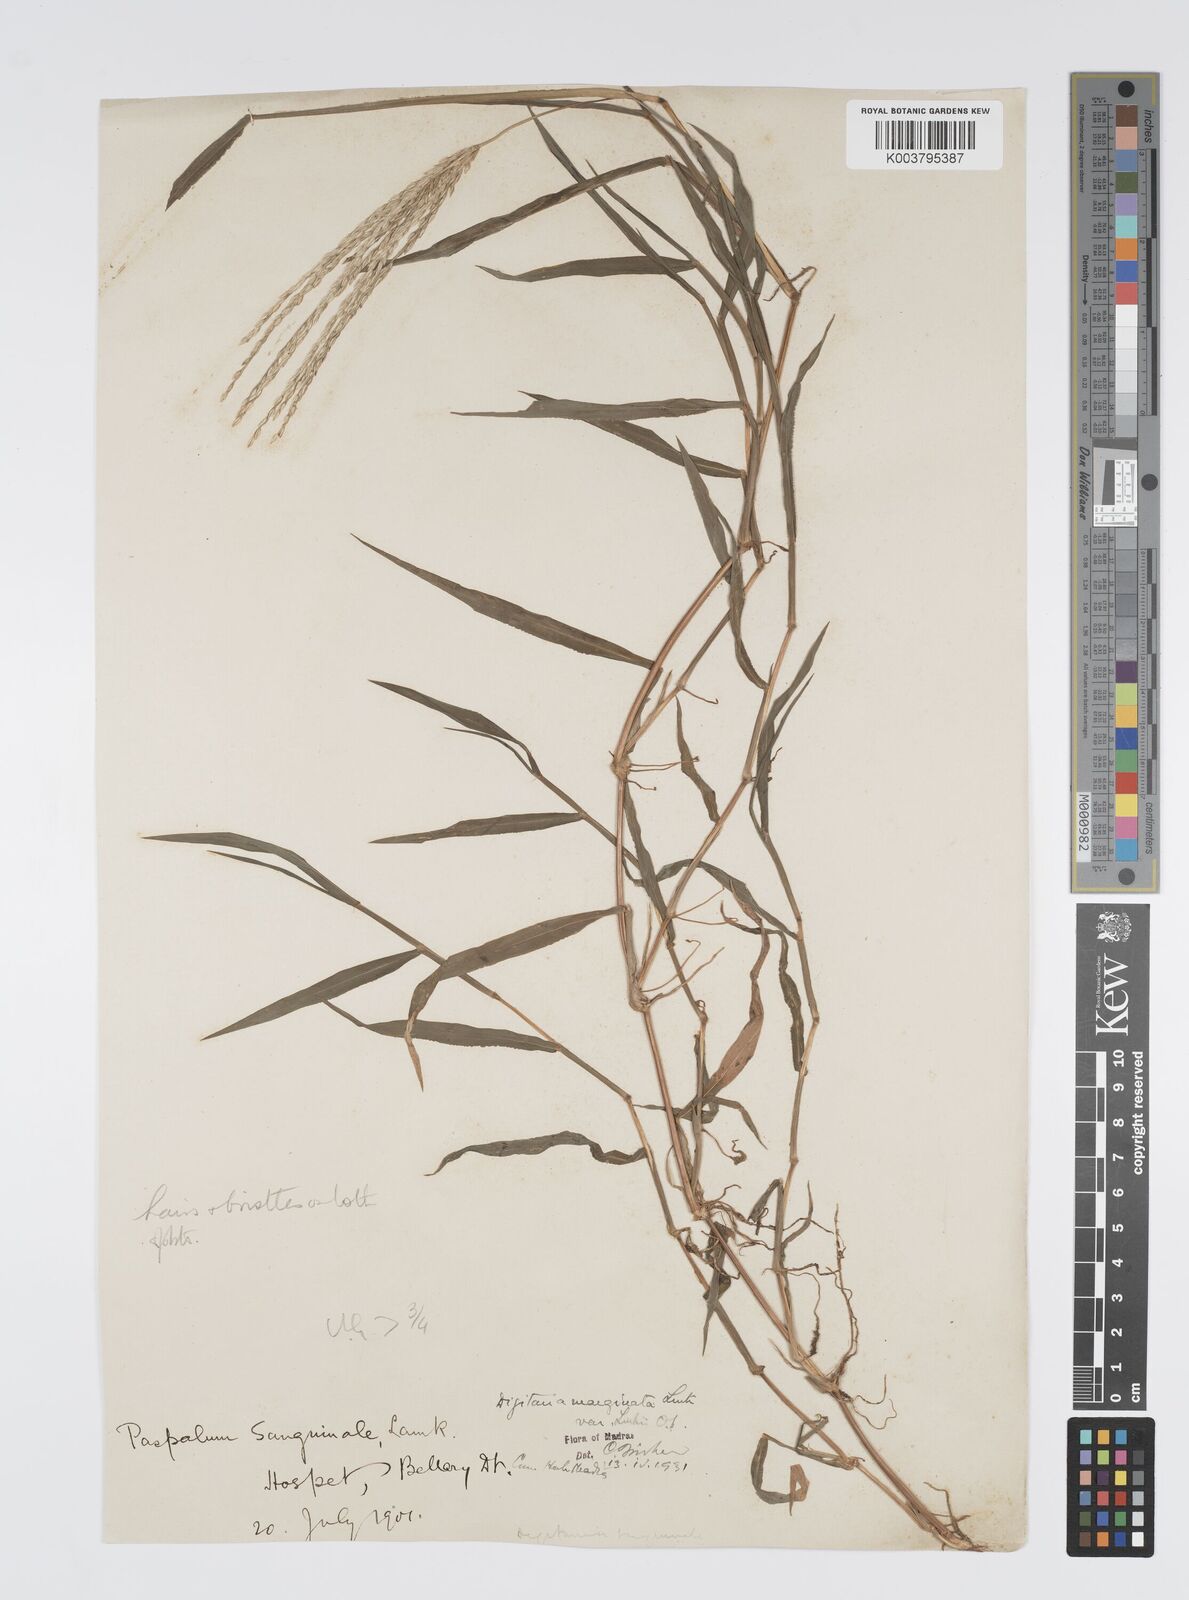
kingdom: Plantae
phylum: Tracheophyta
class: Liliopsida
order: Poales
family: Poaceae
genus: Digitaria
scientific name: Digitaria ciliaris
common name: Tropical finger-grass
